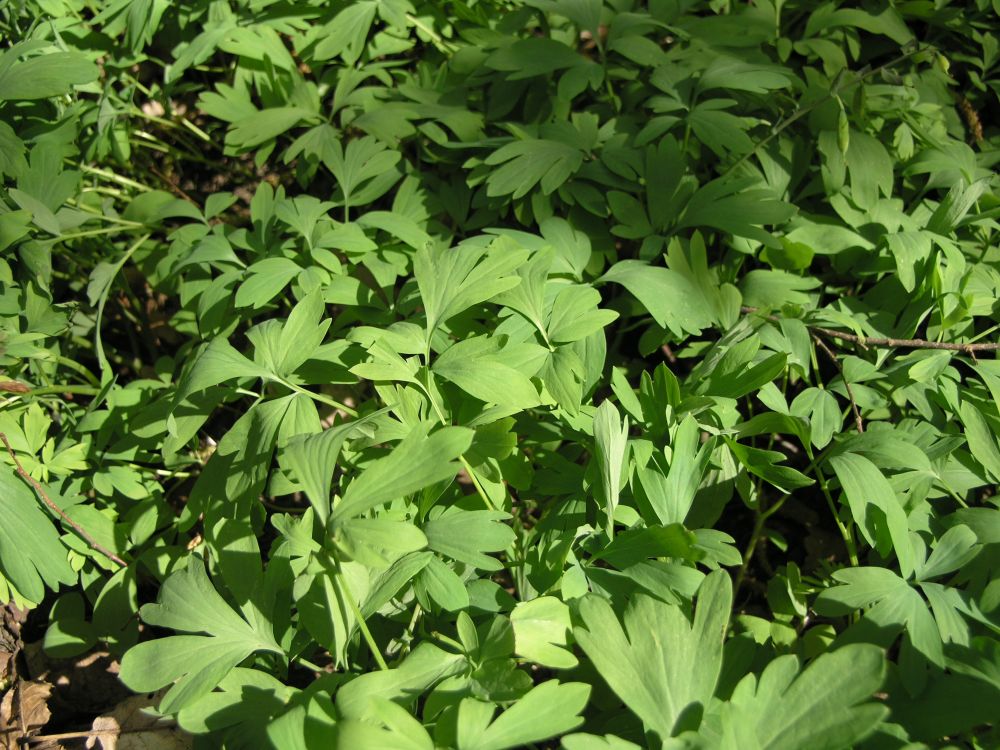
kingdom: Plantae
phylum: Tracheophyta
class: Magnoliopsida
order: Ranunculales
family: Papaveraceae
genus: Corydalis
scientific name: Corydalis cava
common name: Hollowroot
